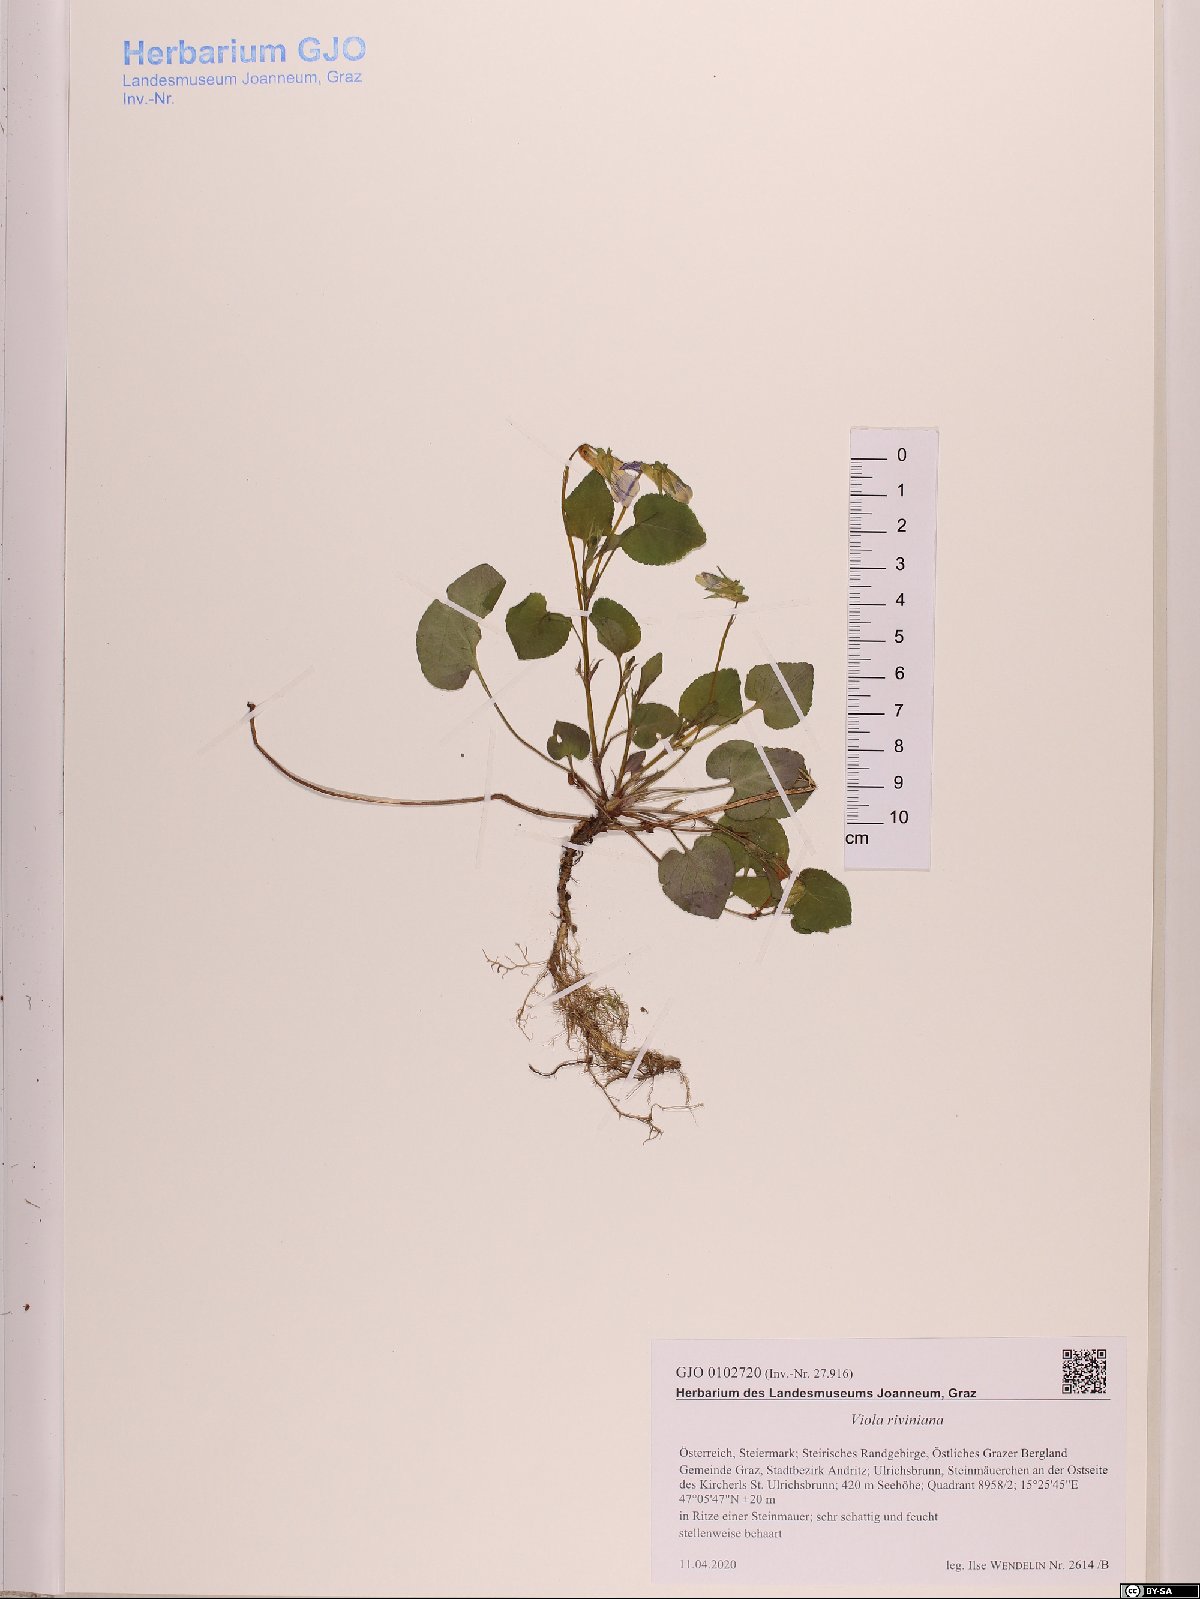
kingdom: Plantae
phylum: Tracheophyta
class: Magnoliopsida
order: Malpighiales
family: Violaceae
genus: Viola
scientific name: Viola riviniana
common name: Common dog-violet
